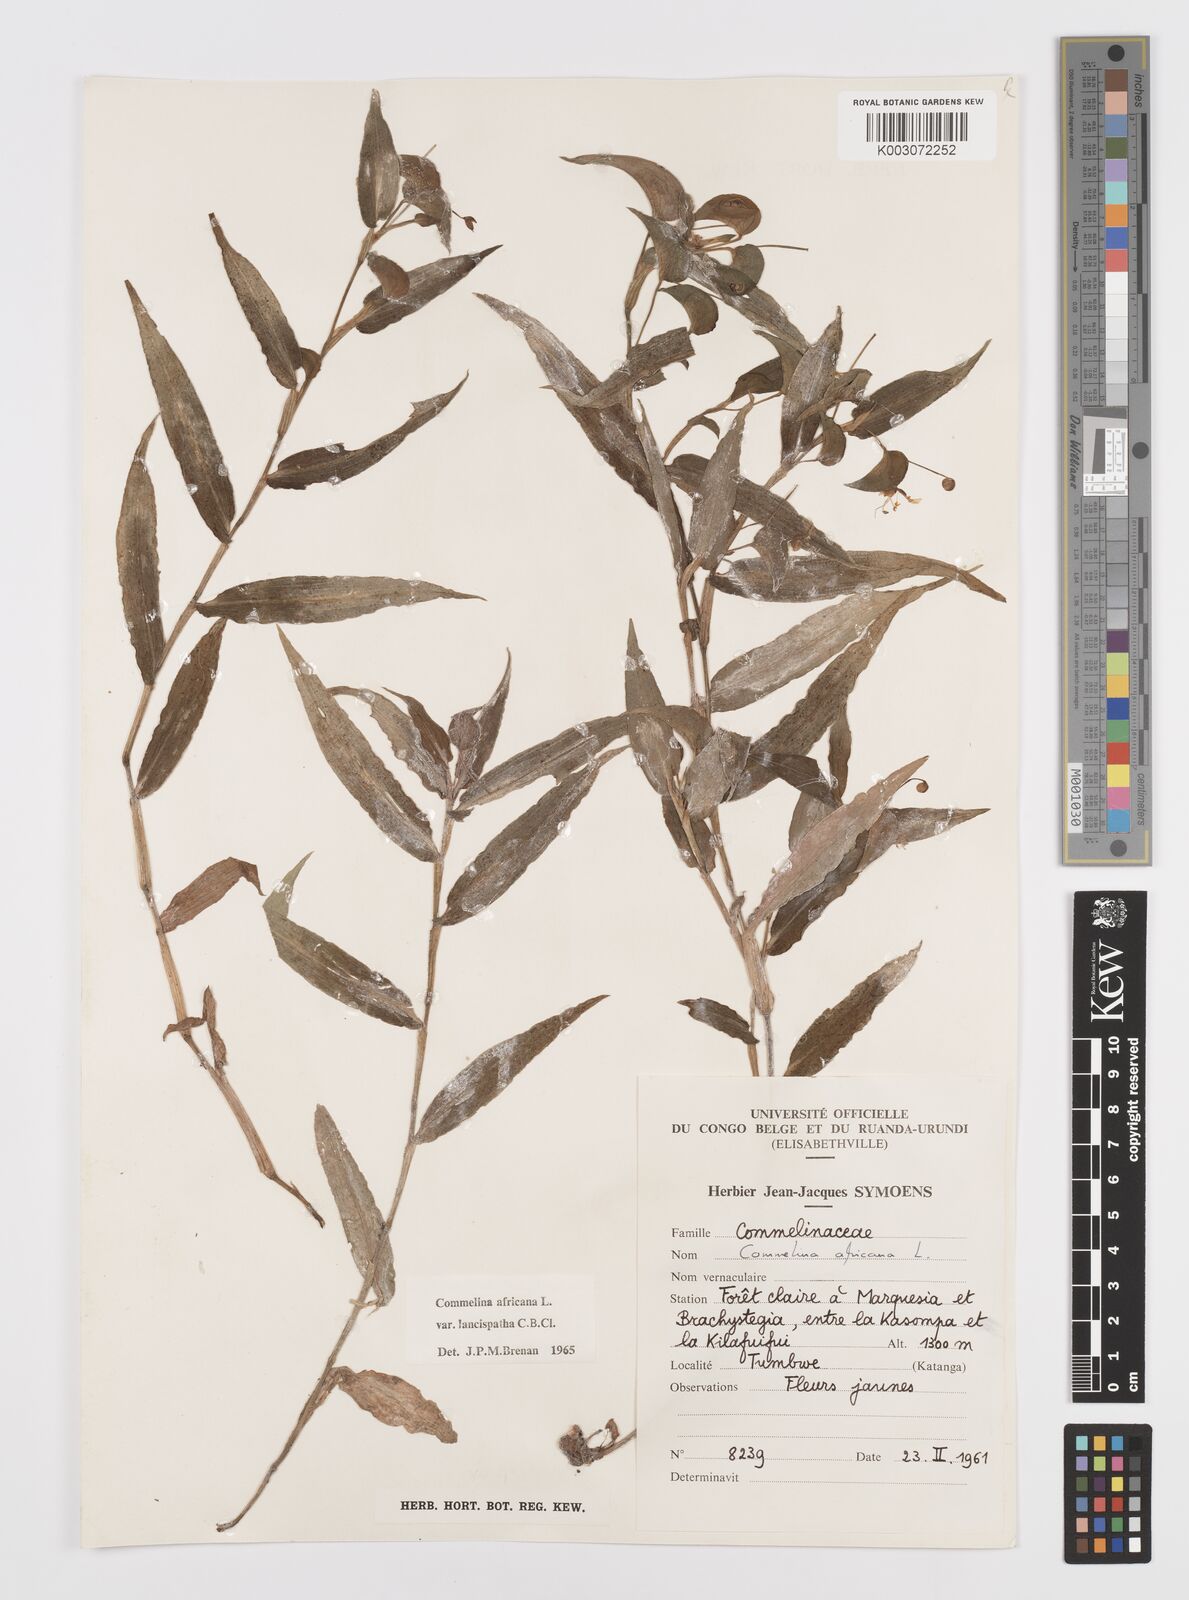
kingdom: Plantae
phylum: Tracheophyta
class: Liliopsida
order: Commelinales
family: Commelinaceae
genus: Commelina
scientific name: Commelina africana
